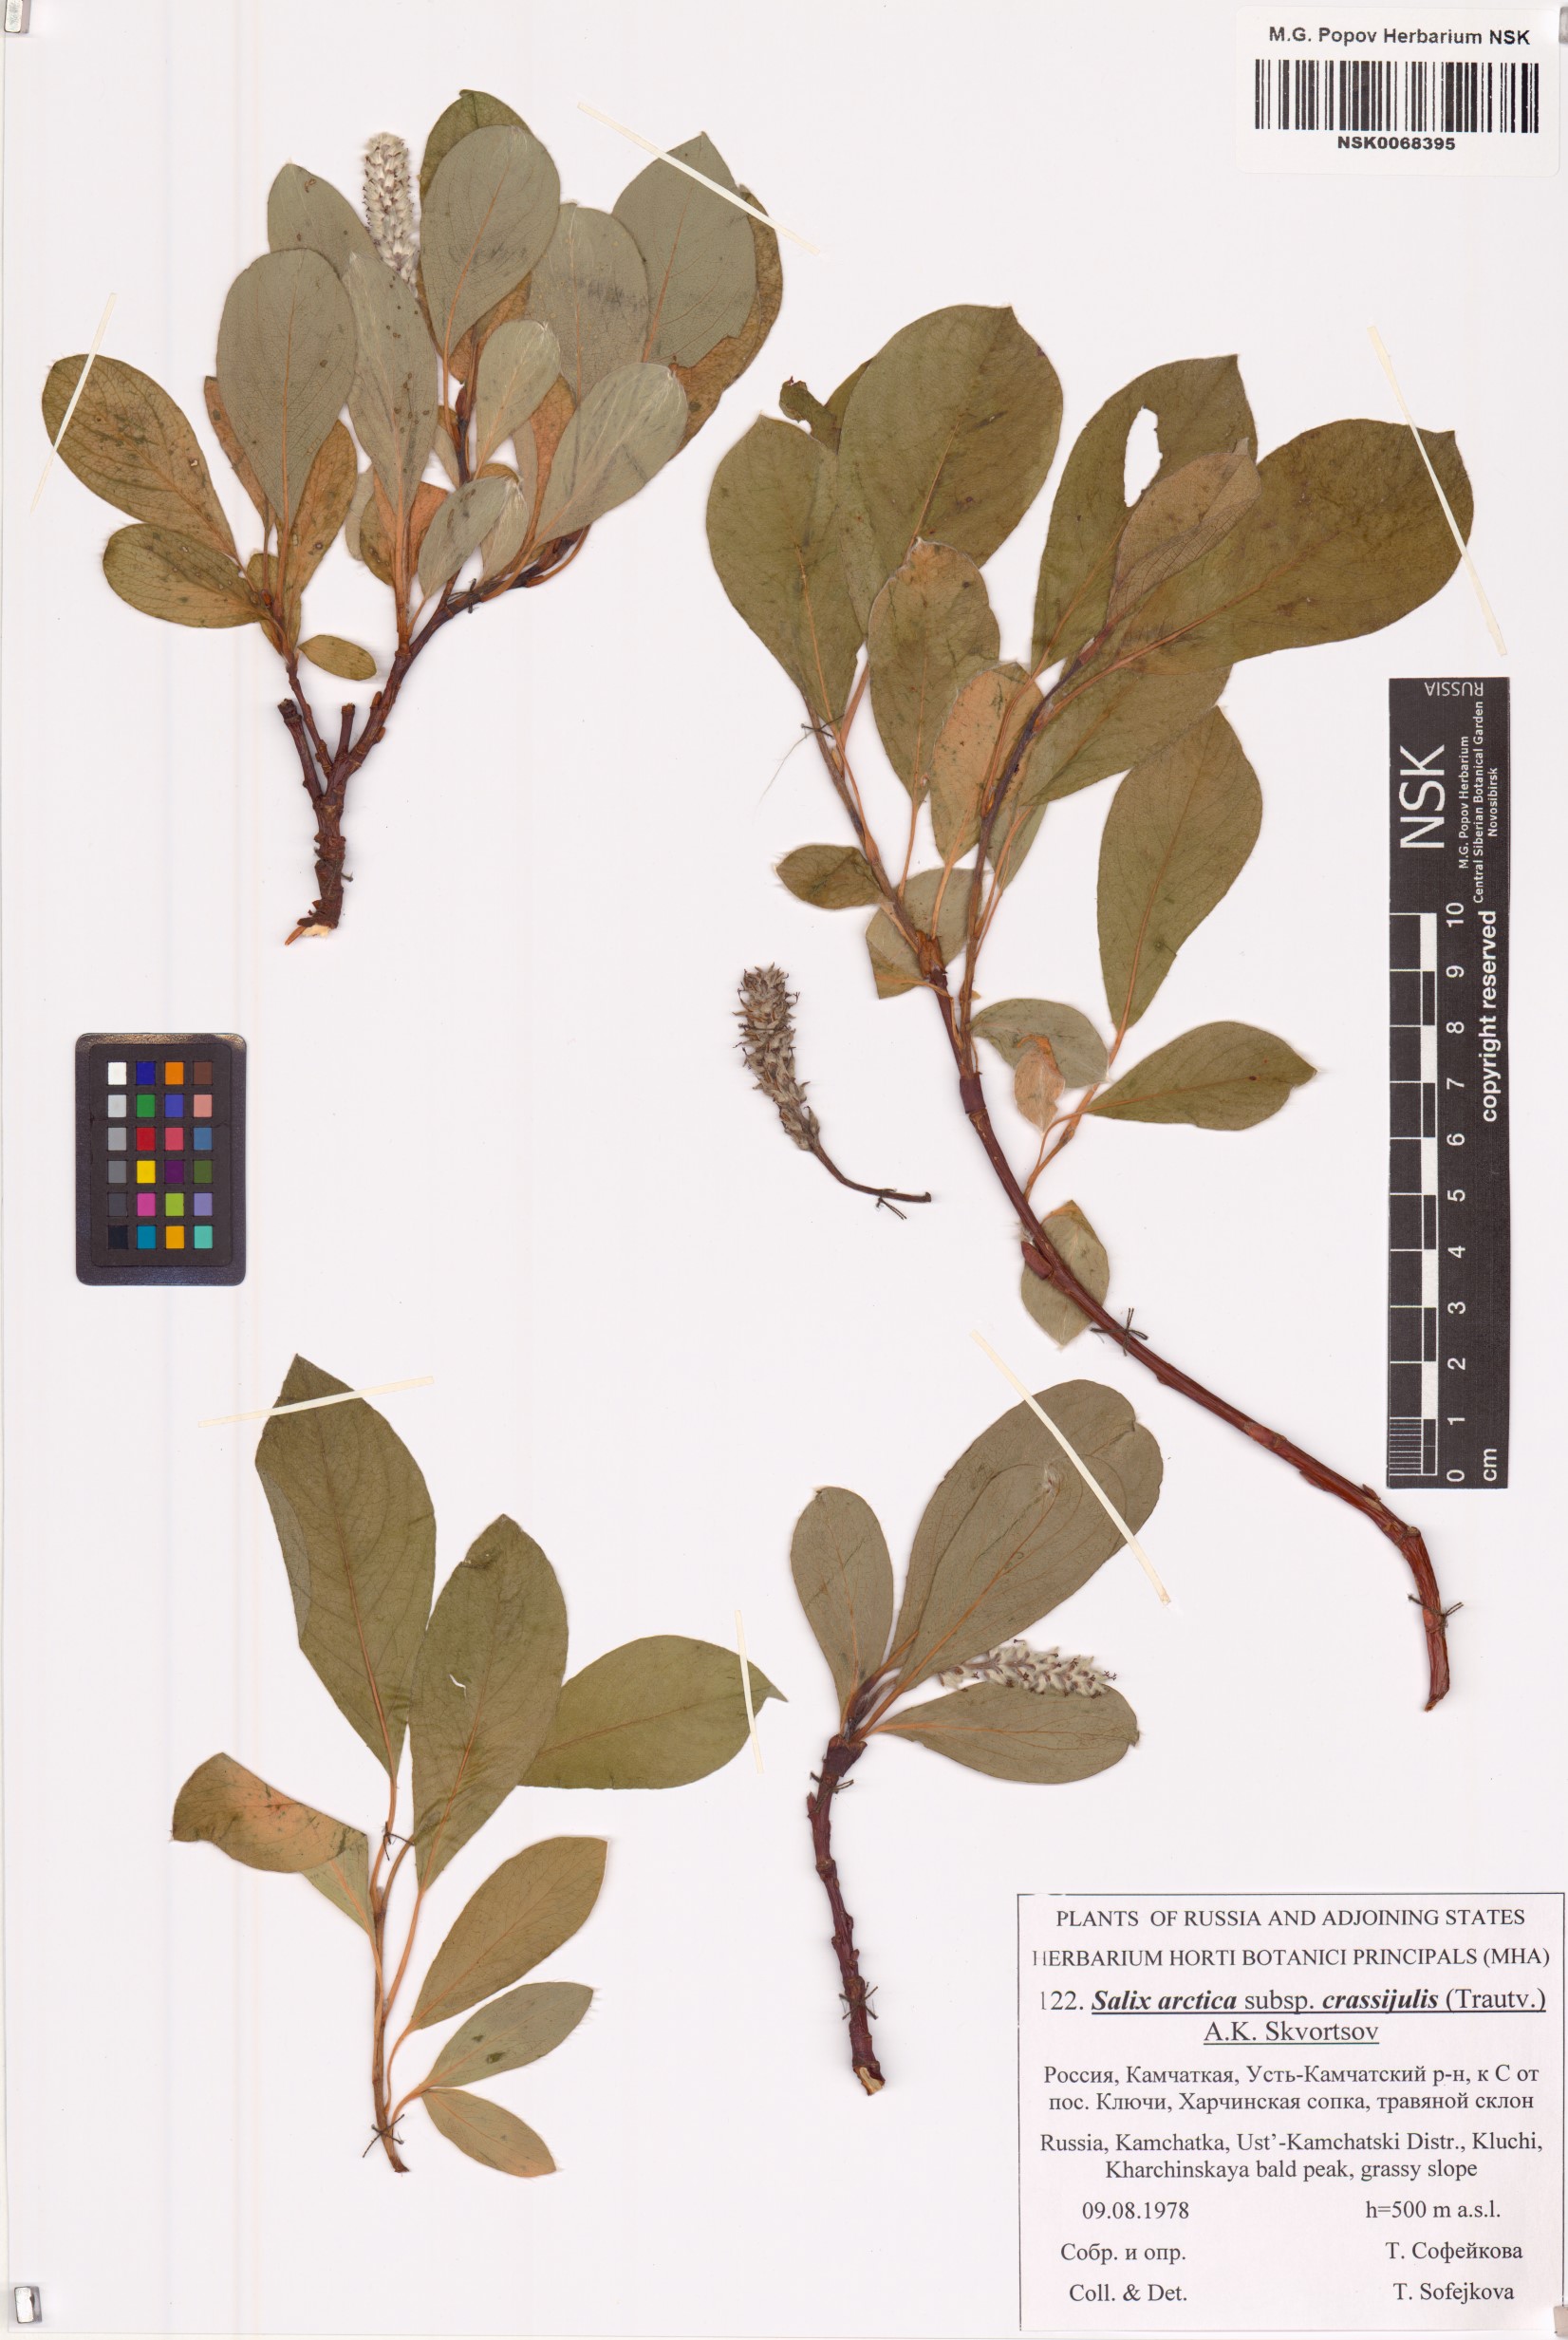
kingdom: Plantae
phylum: Tracheophyta
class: Magnoliopsida
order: Malpighiales
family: Salicaceae
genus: Salix
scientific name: Salix arctica
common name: Arctic willow
